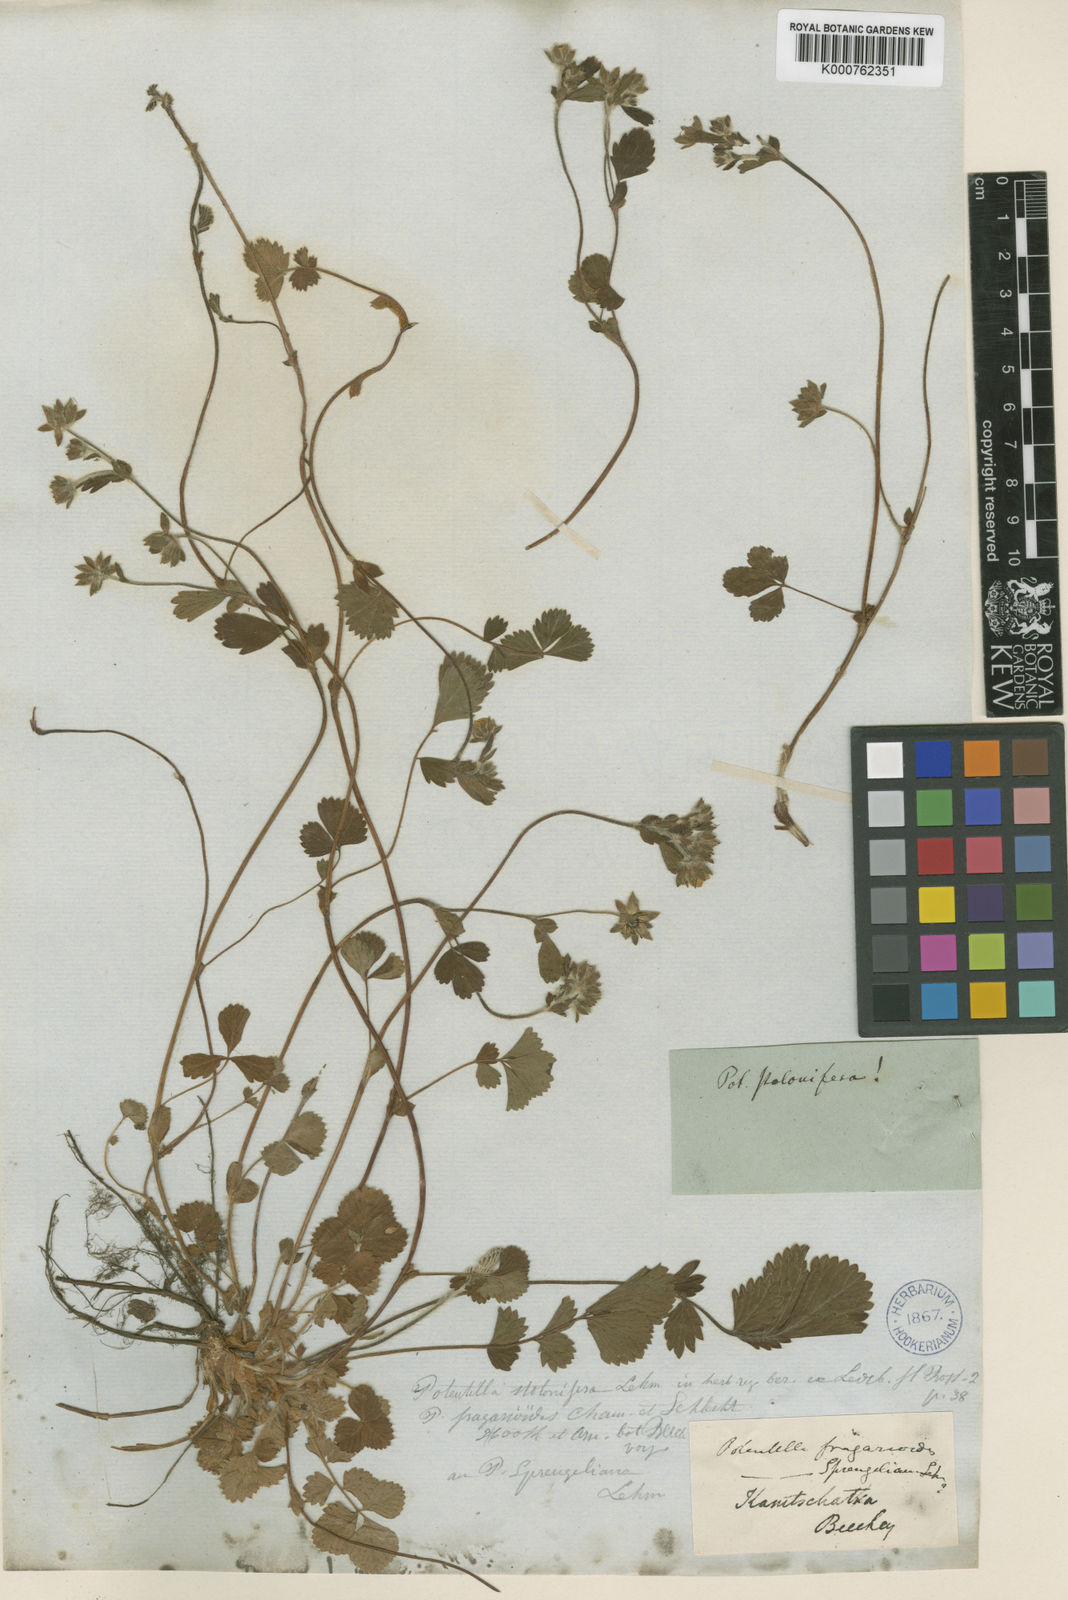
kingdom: Plantae
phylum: Tracheophyta
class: Magnoliopsida
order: Rosales
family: Rosaceae
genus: Potentilla
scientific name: Potentilla
